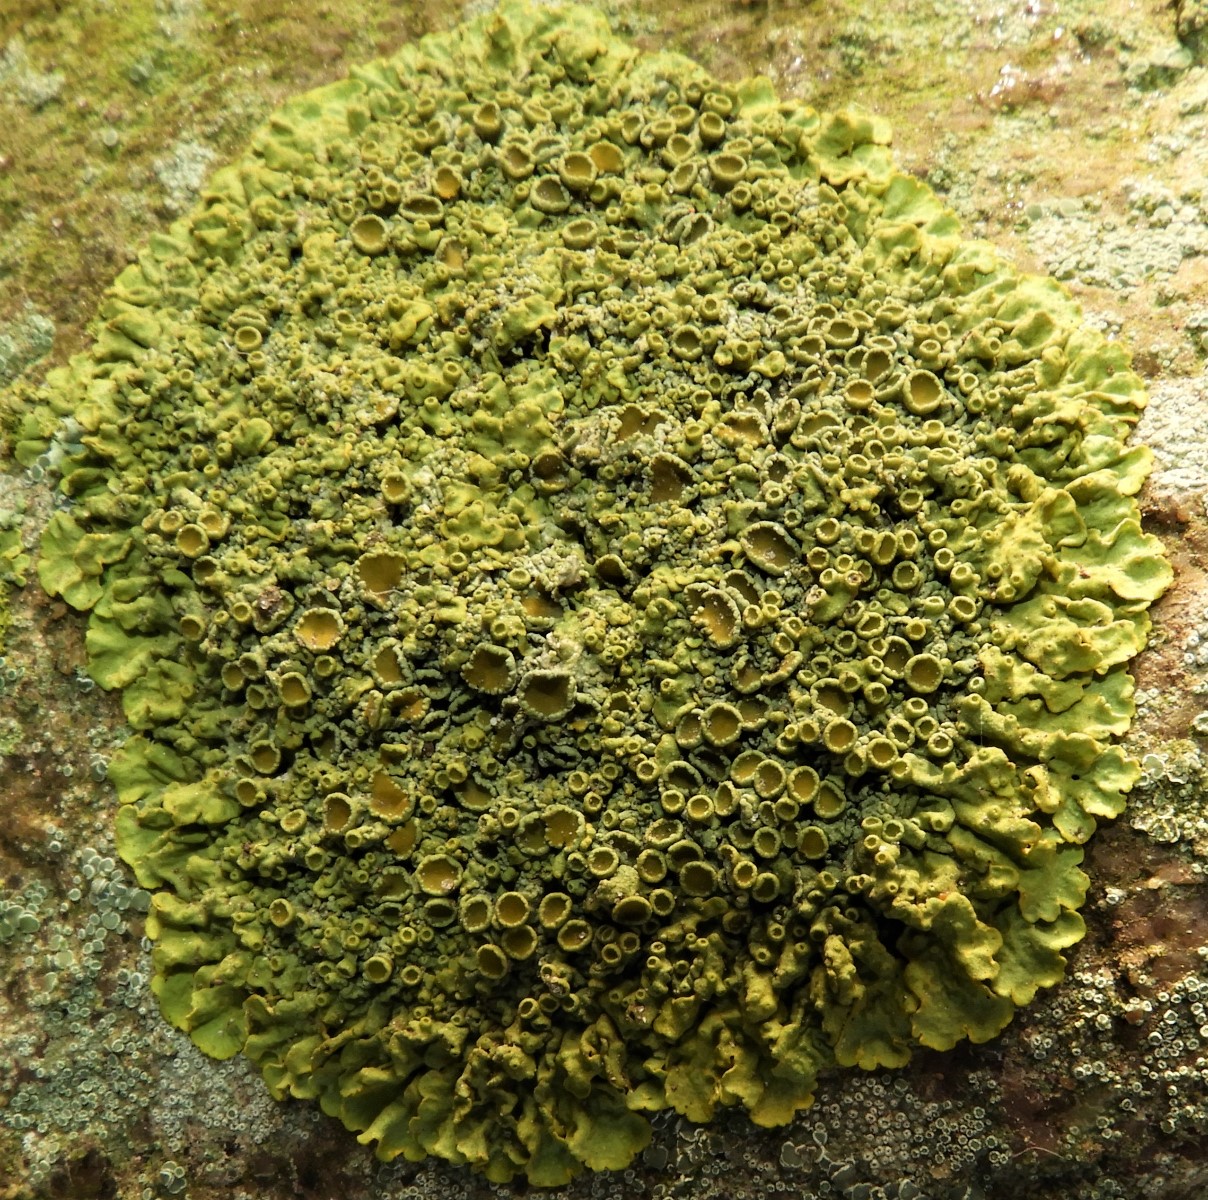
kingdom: Fungi
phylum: Ascomycota
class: Lecanoromycetes
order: Teloschistales
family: Teloschistaceae
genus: Xanthoria
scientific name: Xanthoria parietina
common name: almindelig væggelav
